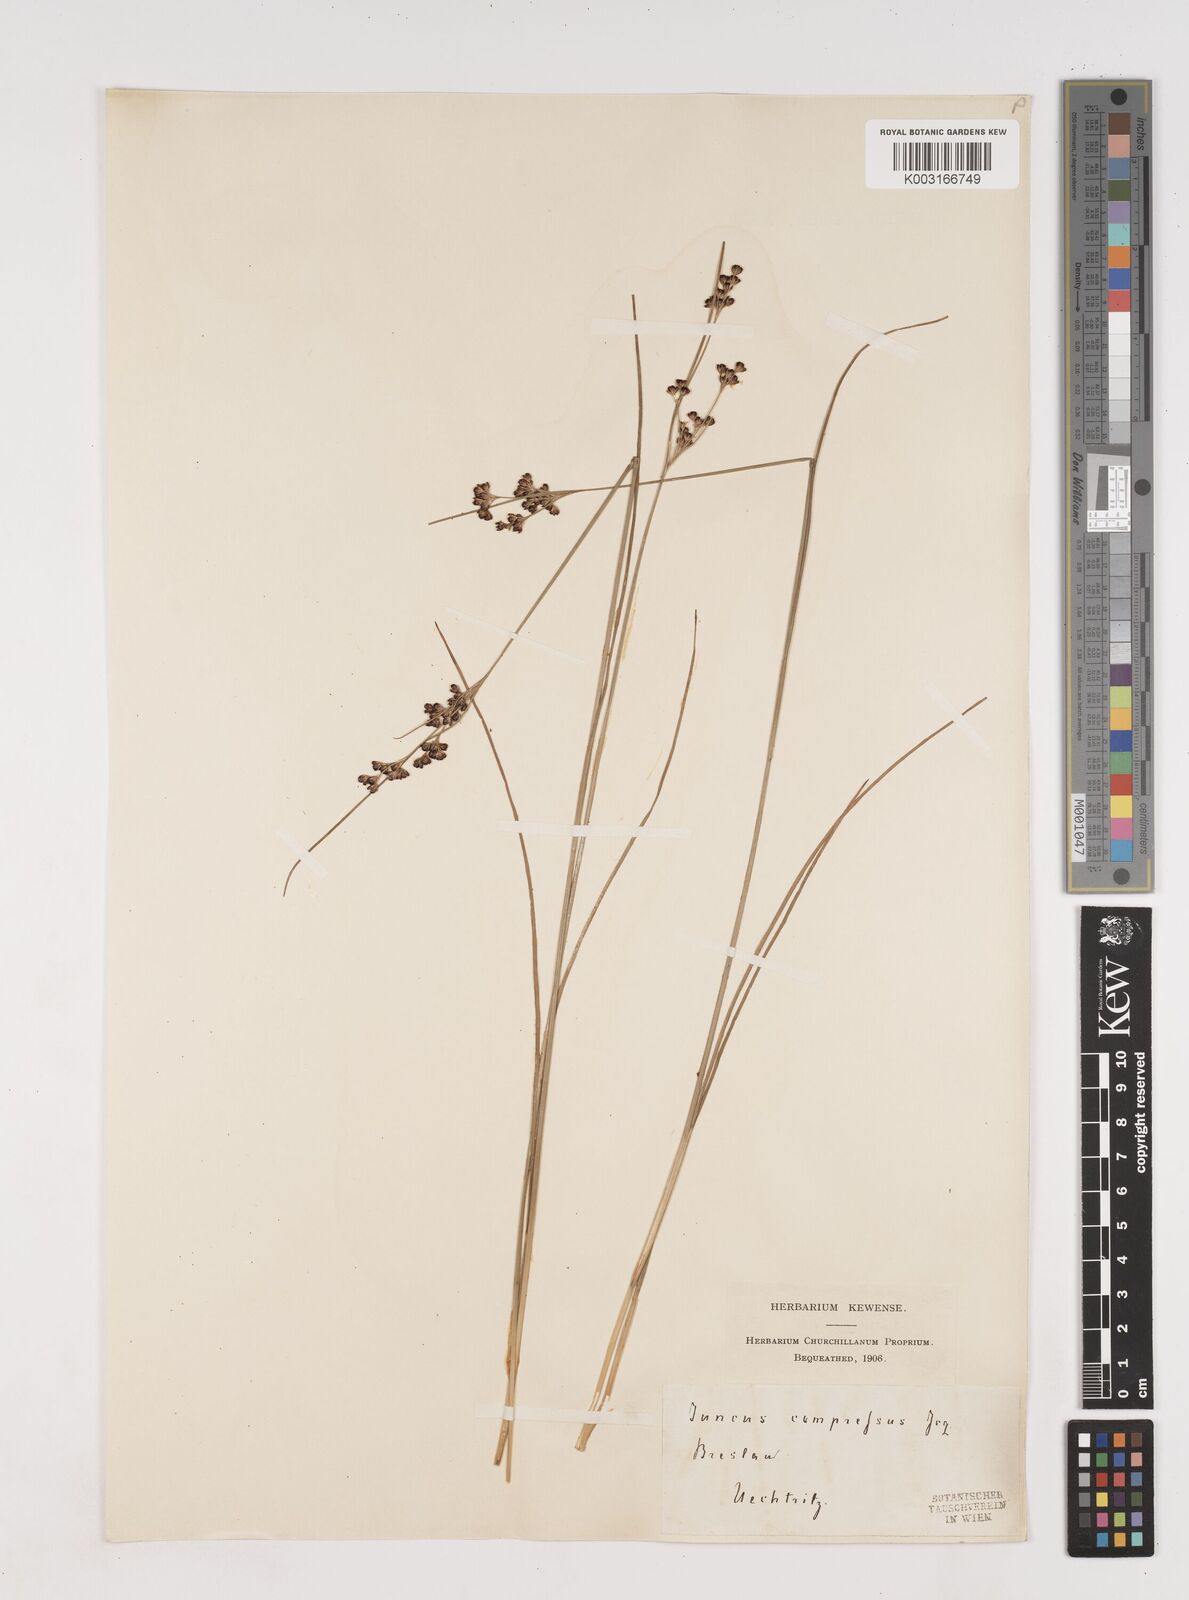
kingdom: Plantae
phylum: Tracheophyta
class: Liliopsida
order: Poales
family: Juncaceae
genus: Juncus
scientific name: Juncus
